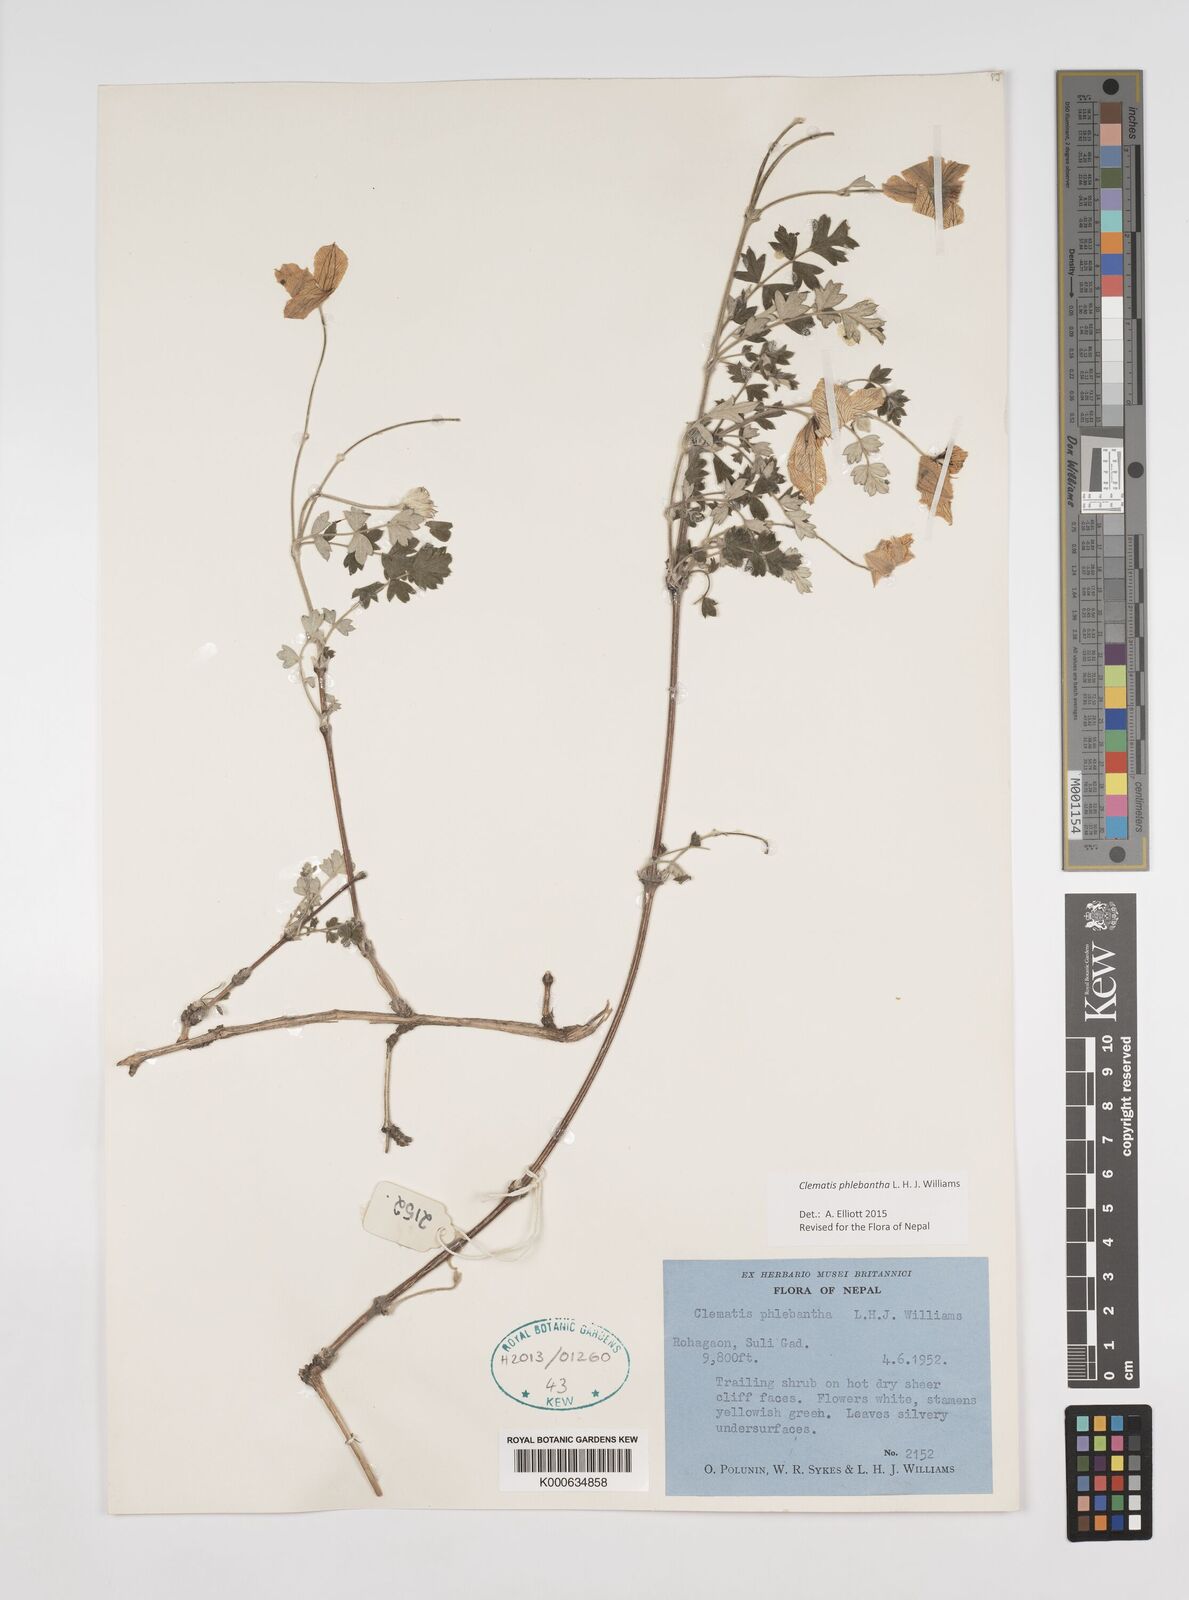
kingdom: Plantae
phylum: Tracheophyta
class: Magnoliopsida
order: Ranunculales
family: Ranunculaceae
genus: Clematis
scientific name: Clematis phlebantha
